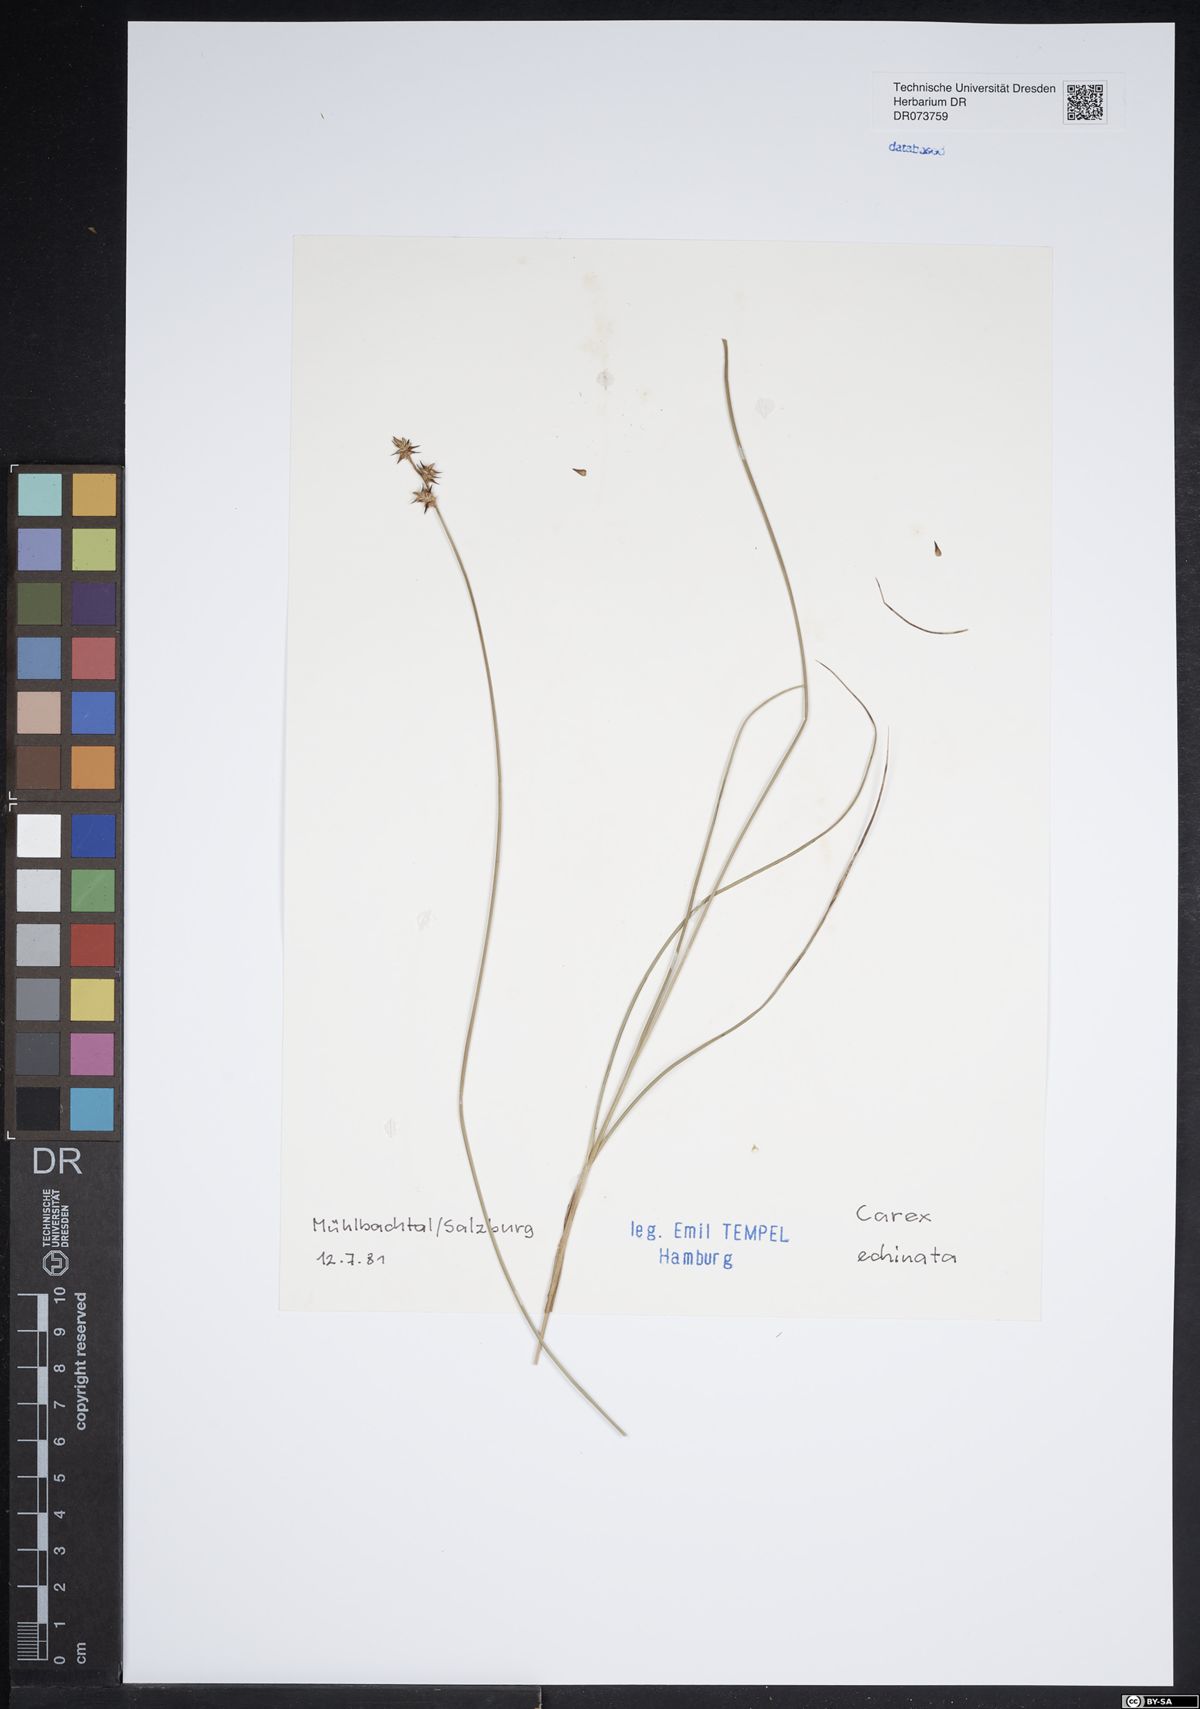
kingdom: Plantae
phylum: Tracheophyta
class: Liliopsida
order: Poales
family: Cyperaceae
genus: Carex
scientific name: Carex echinata
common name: Star sedge
